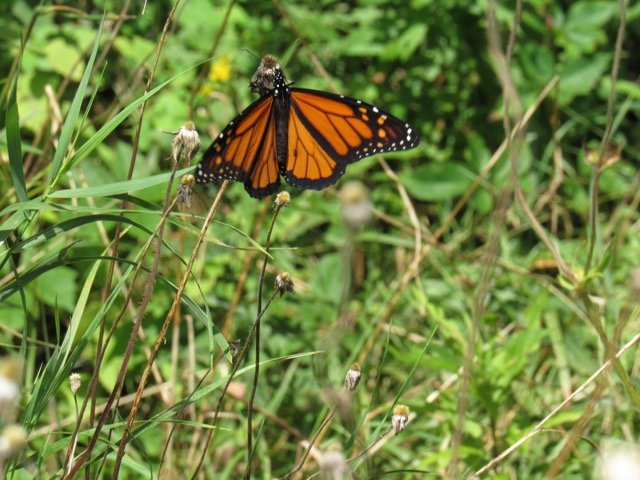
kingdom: Animalia
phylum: Arthropoda
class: Insecta
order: Lepidoptera
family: Nymphalidae
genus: Danaus
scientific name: Danaus plexippus
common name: Monarch
